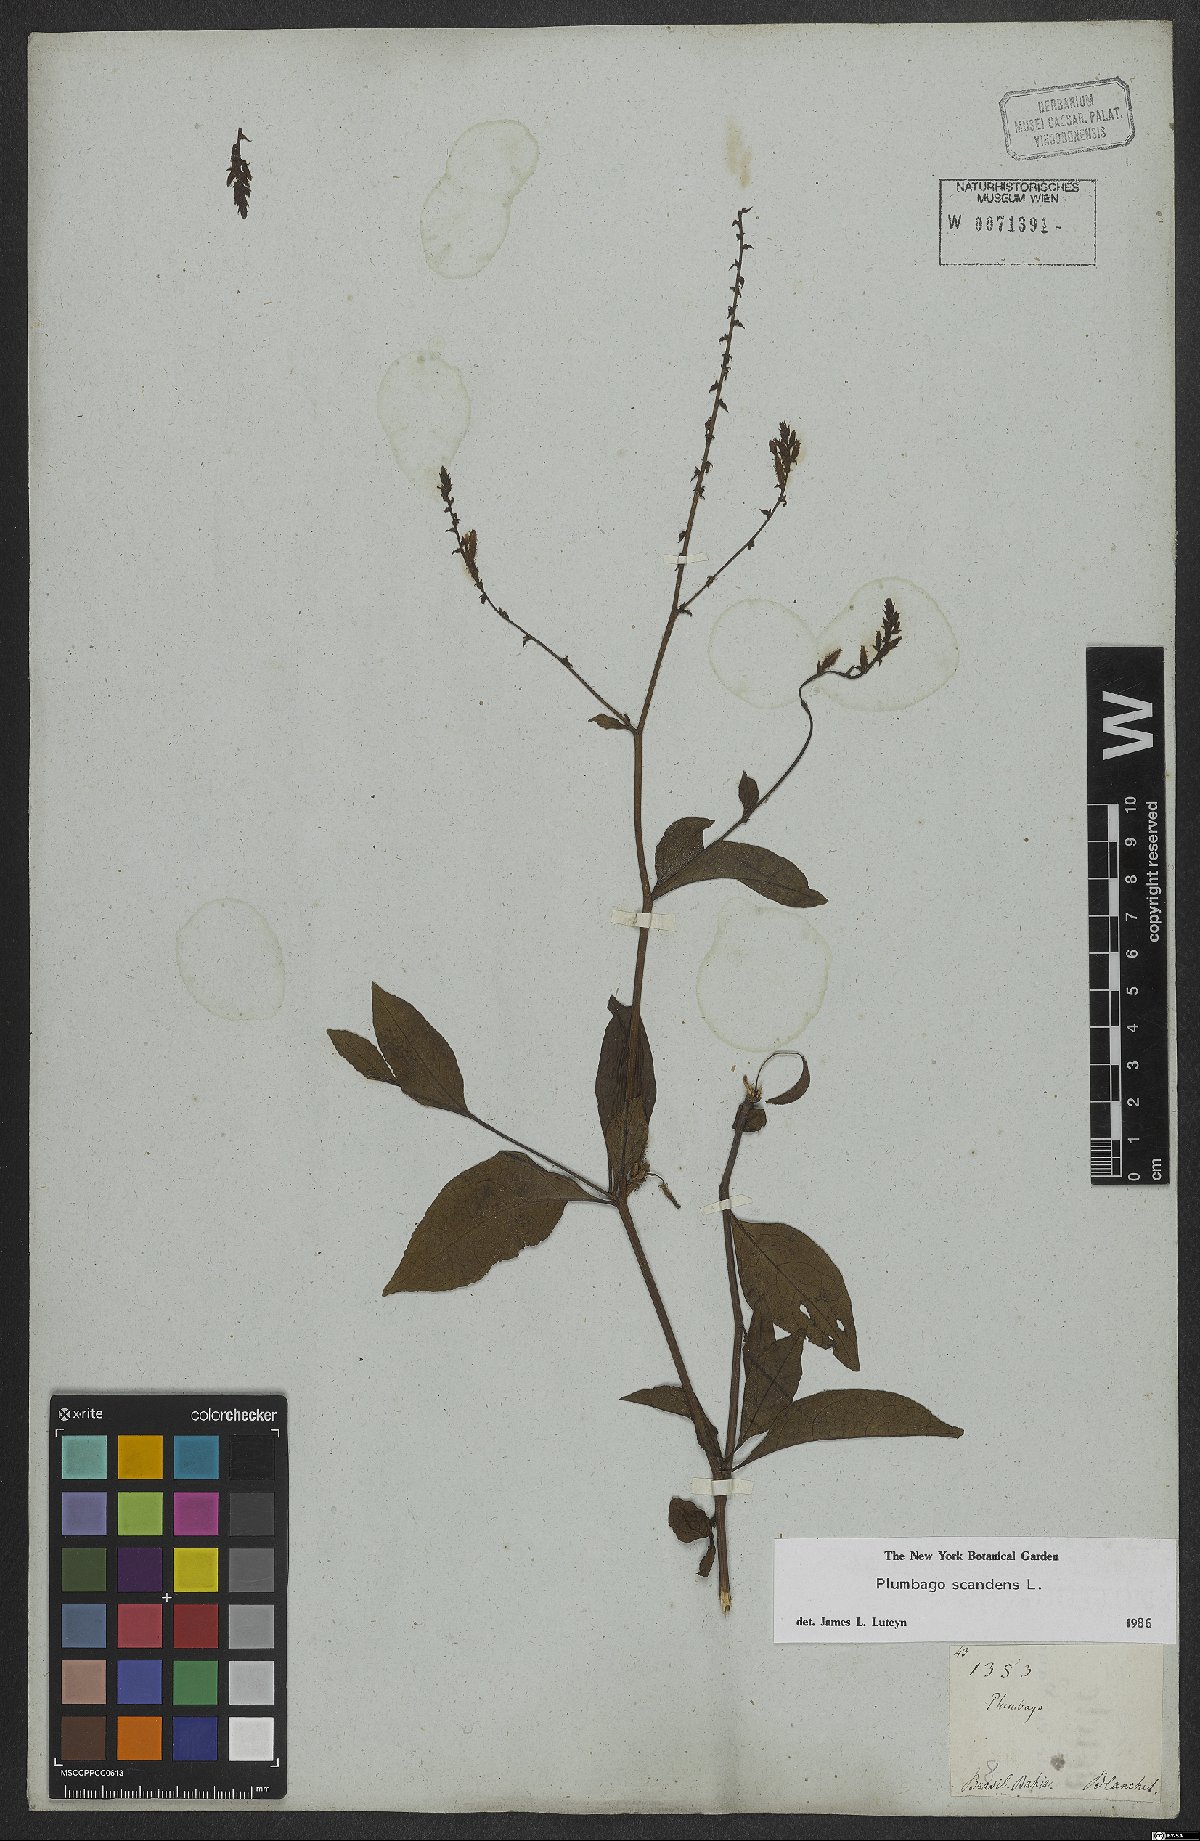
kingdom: Plantae
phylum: Tracheophyta
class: Magnoliopsida
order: Caryophyllales
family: Plumbaginaceae
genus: Plumbago
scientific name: Plumbago zeylanica
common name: Doctorbush
